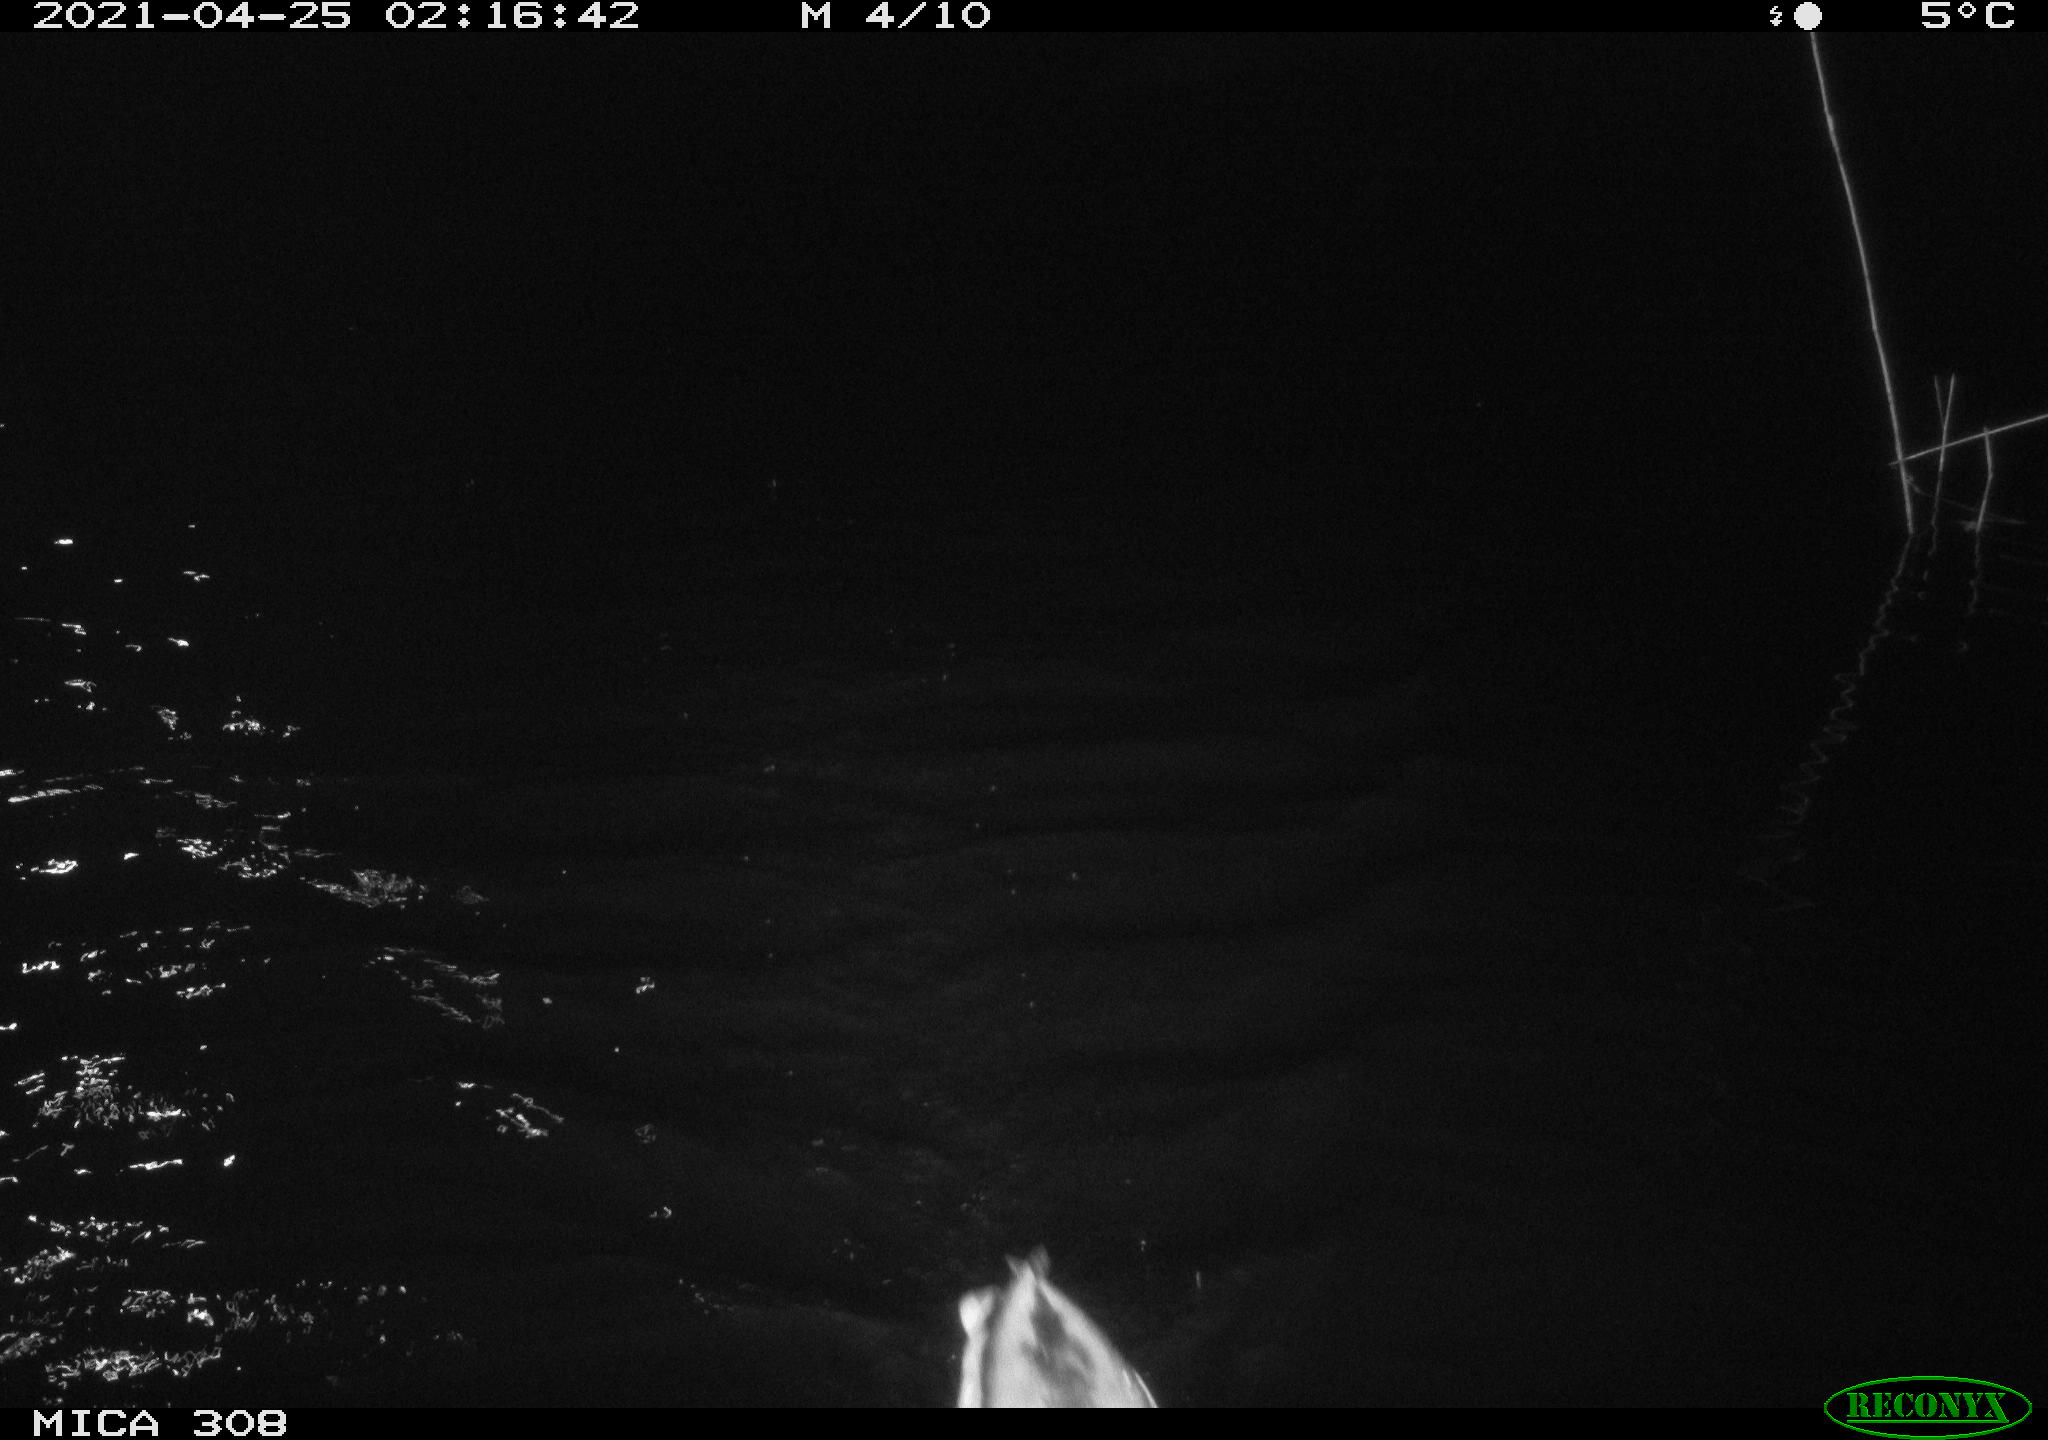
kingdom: Animalia
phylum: Chordata
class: Aves
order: Anseriformes
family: Anatidae
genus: Anas
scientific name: Anas platyrhynchos
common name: Mallard
